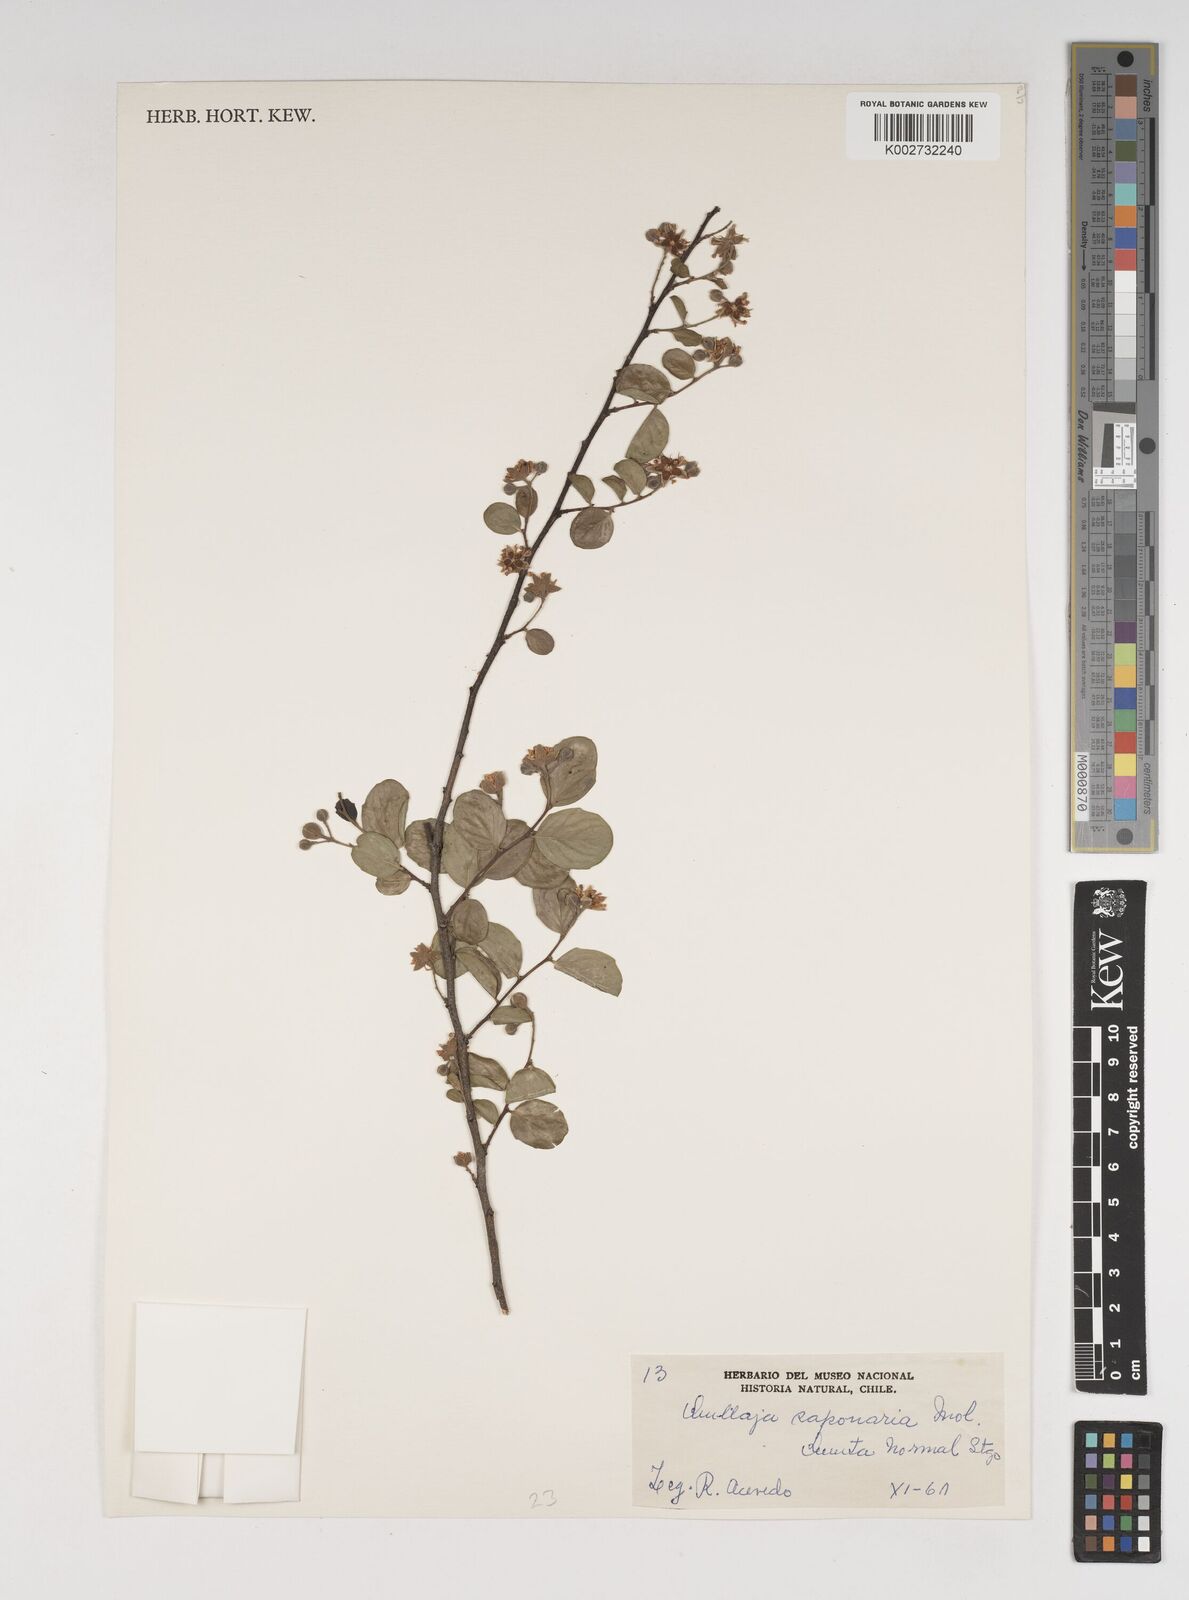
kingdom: Plantae
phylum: Tracheophyta
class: Magnoliopsida
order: Fabales
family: Quillajaceae
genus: Quillaja
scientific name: Quillaja saponaria
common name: Murillo's-bark
